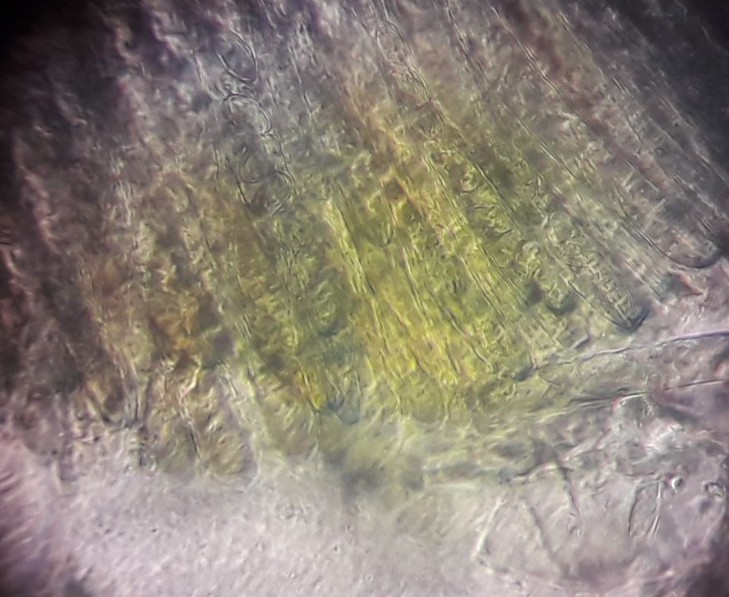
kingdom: Fungi
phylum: Ascomycota
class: Pezizomycetes
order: Pezizales
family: Pezizaceae
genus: Peziza
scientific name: Peziza varia
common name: Ved-bægersvamp
